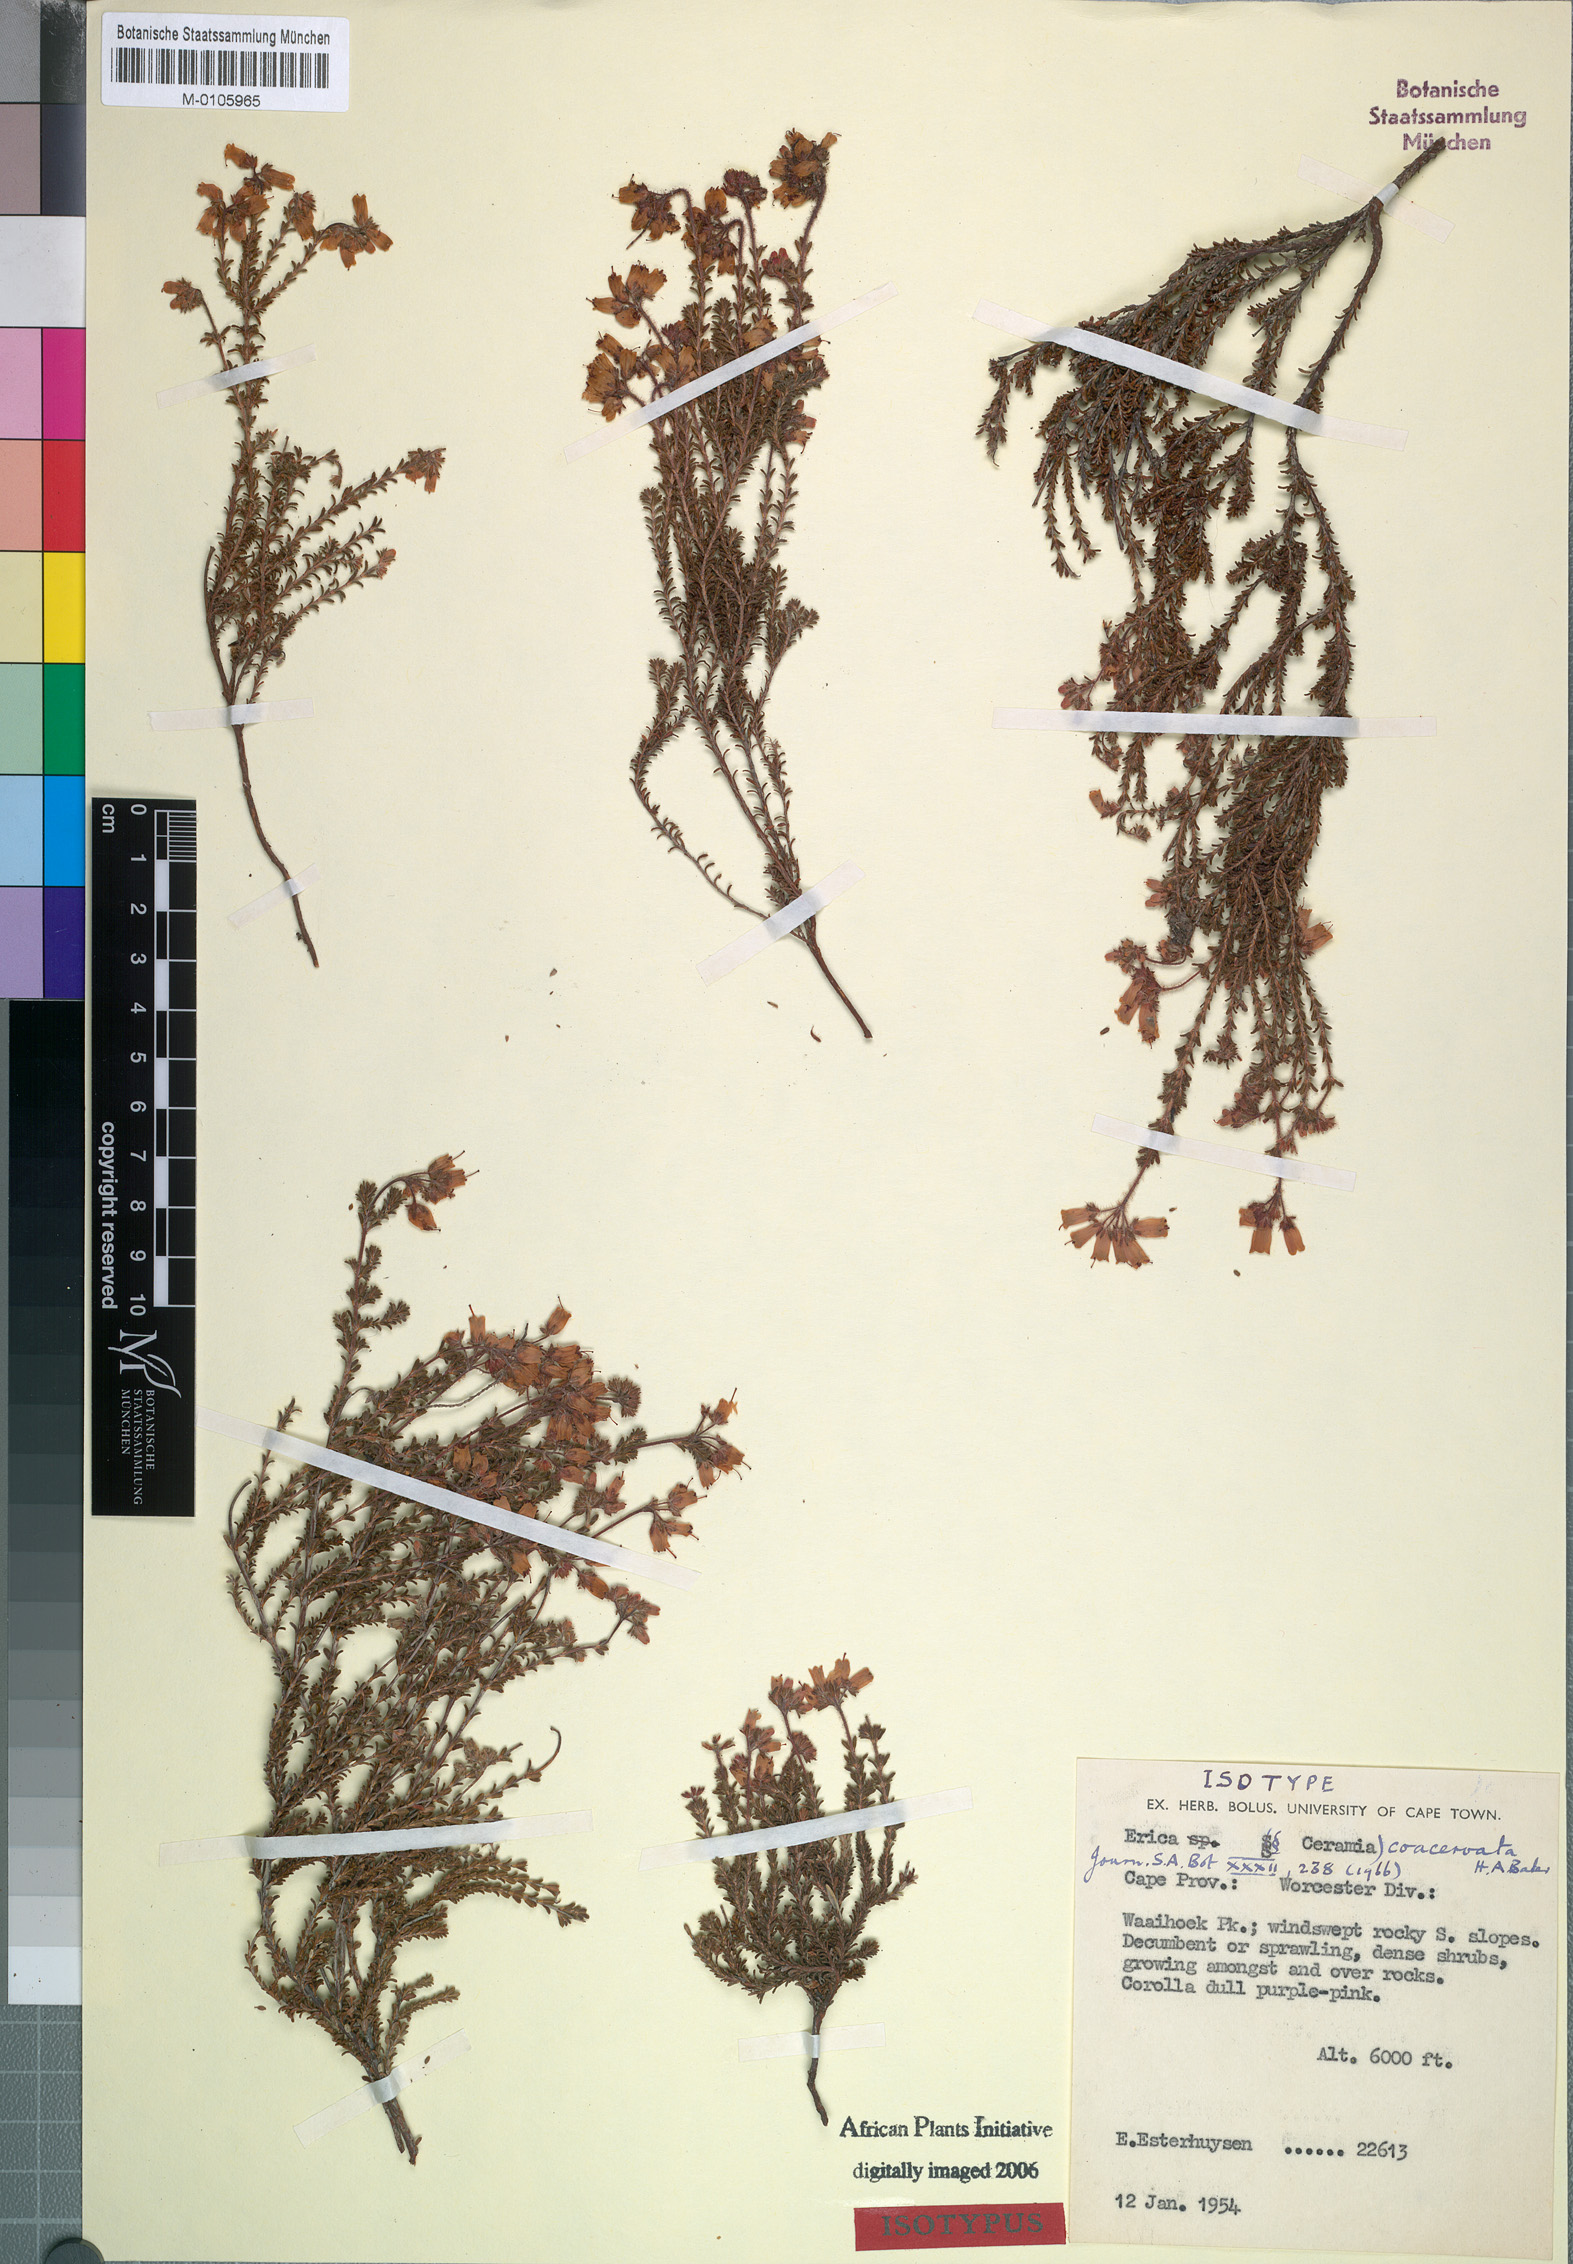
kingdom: Plantae
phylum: Tracheophyta
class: Magnoliopsida
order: Ericales
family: Ericaceae
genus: Erica
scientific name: Erica coacervata
